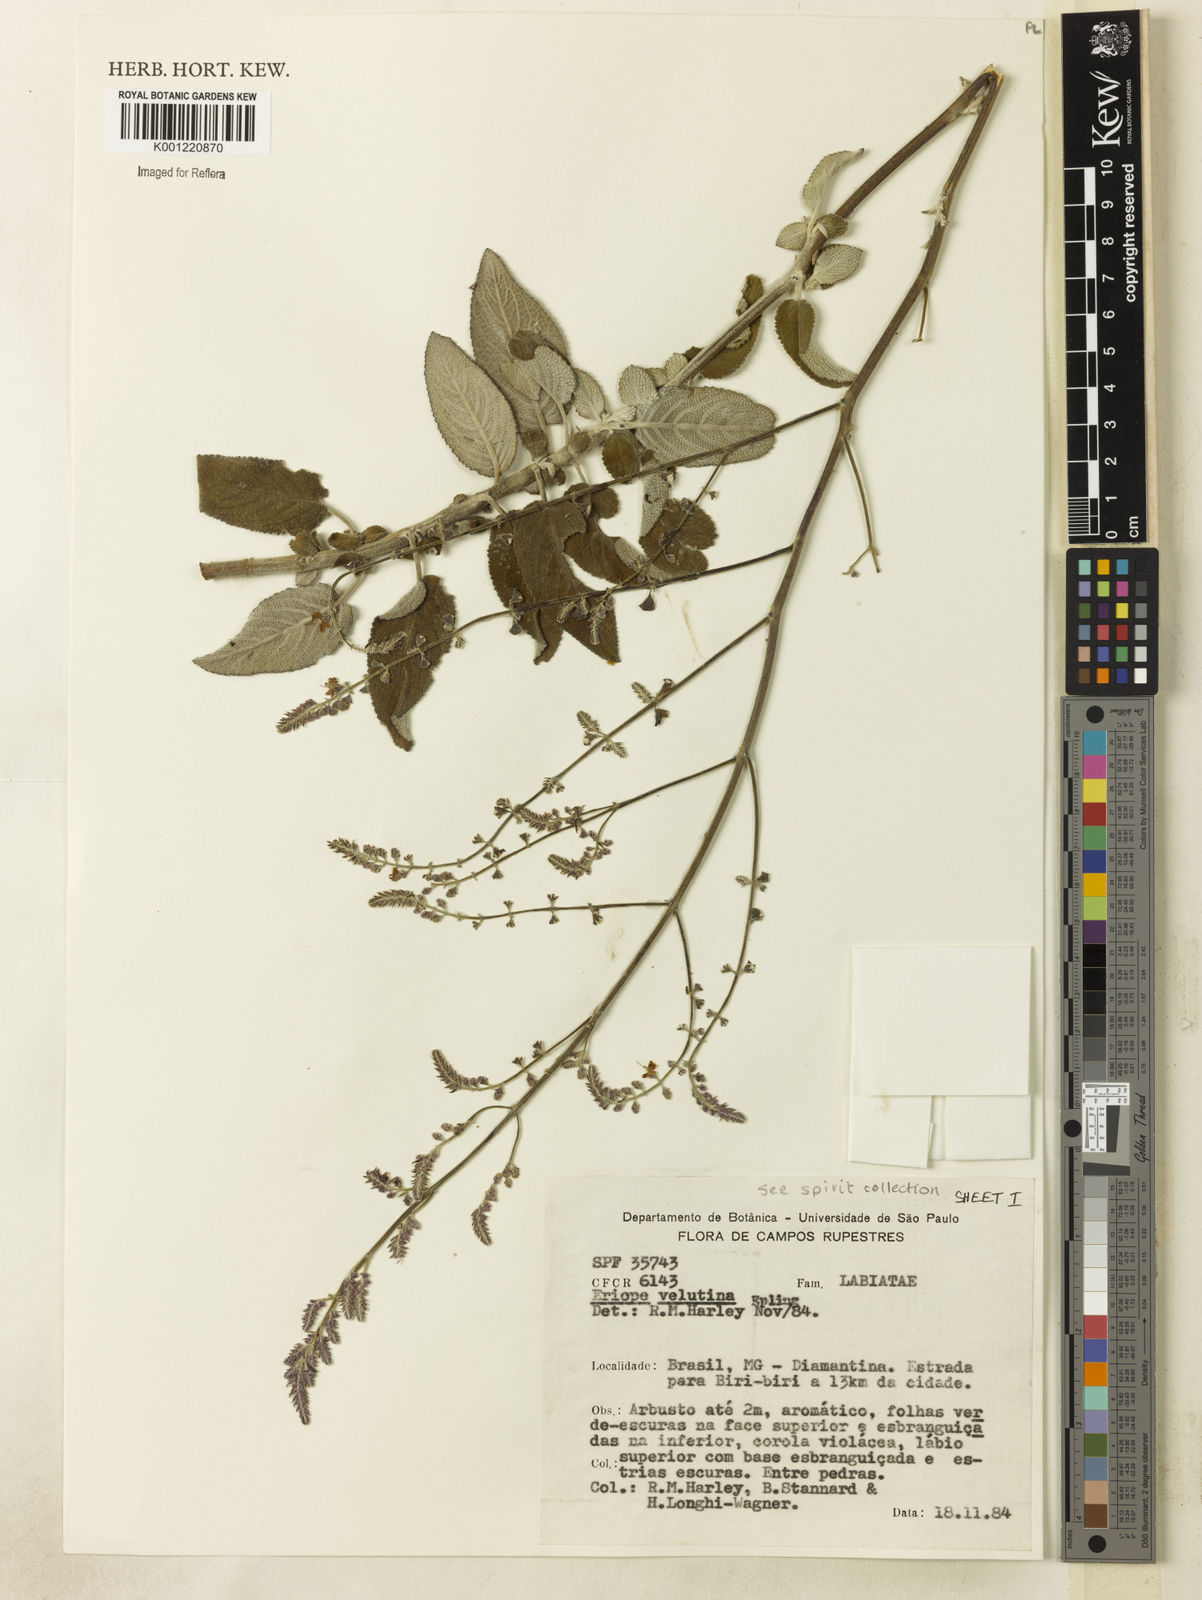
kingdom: Plantae
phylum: Tracheophyta
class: Magnoliopsida
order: Lamiales
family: Lamiaceae
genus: Eriope
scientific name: Eriope velutina
